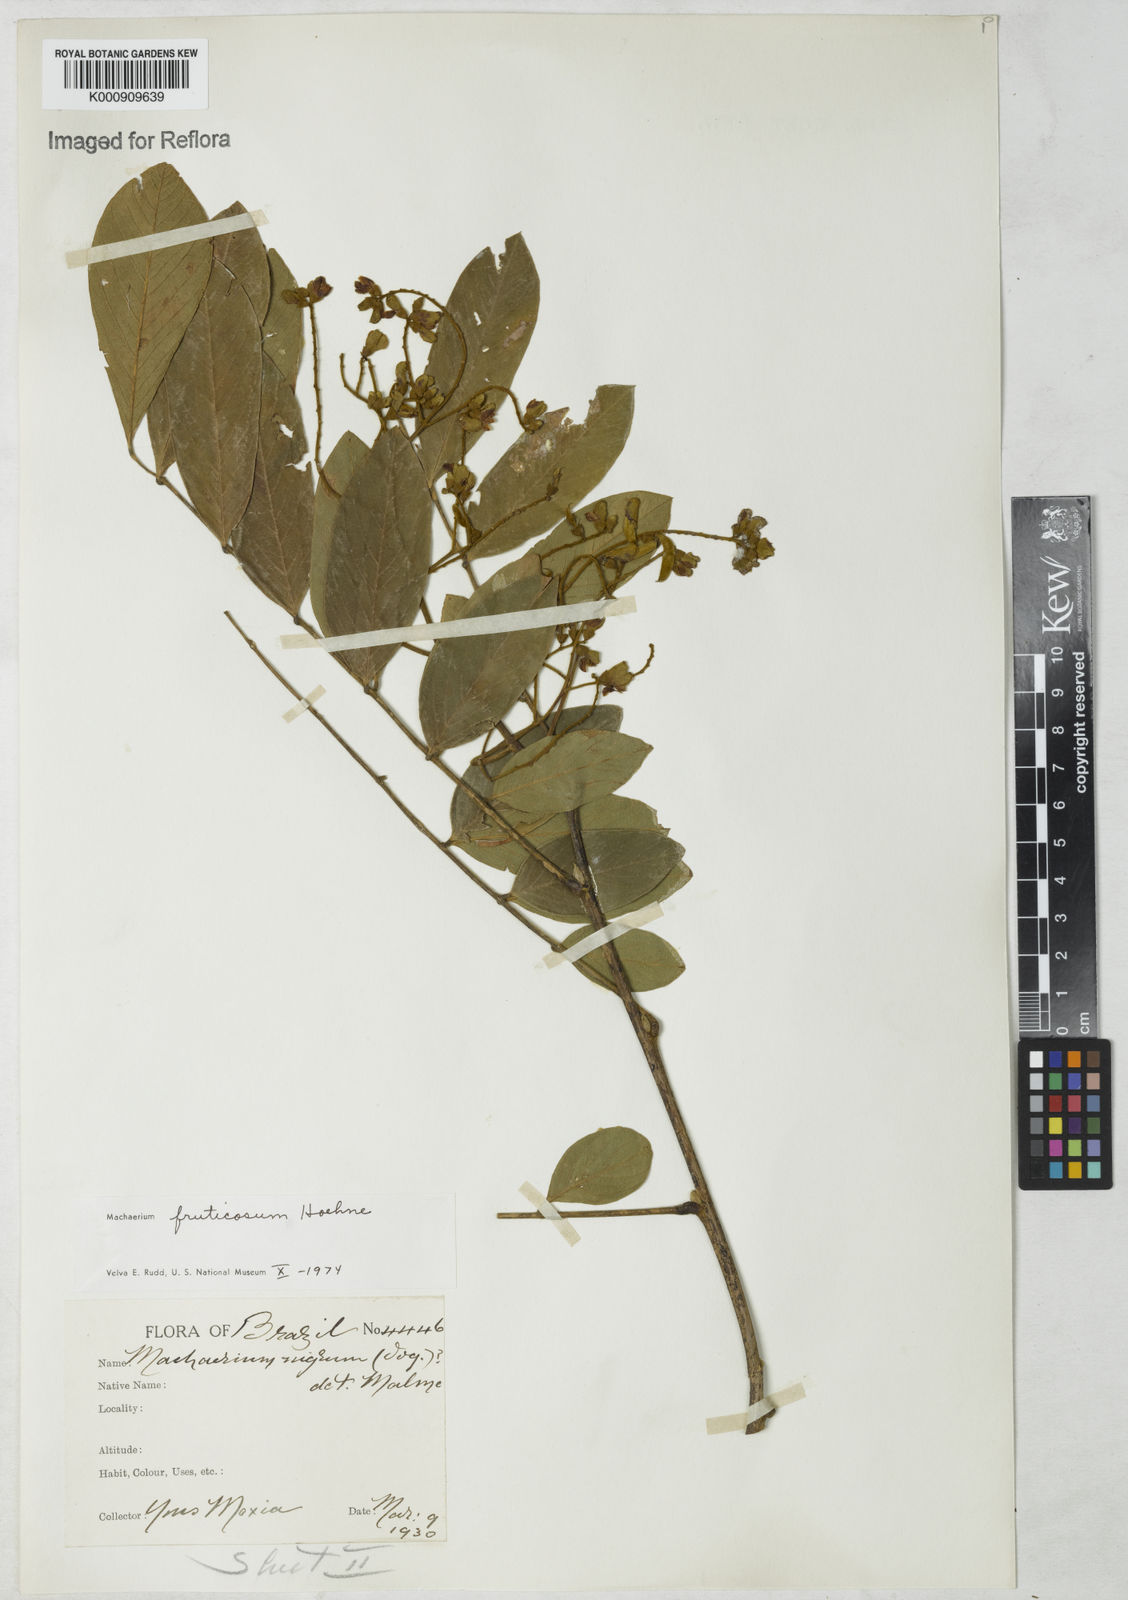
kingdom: Plantae
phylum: Tracheophyta
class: Magnoliopsida
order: Fabales
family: Fabaceae
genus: Machaerium
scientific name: Machaerium nigrum
